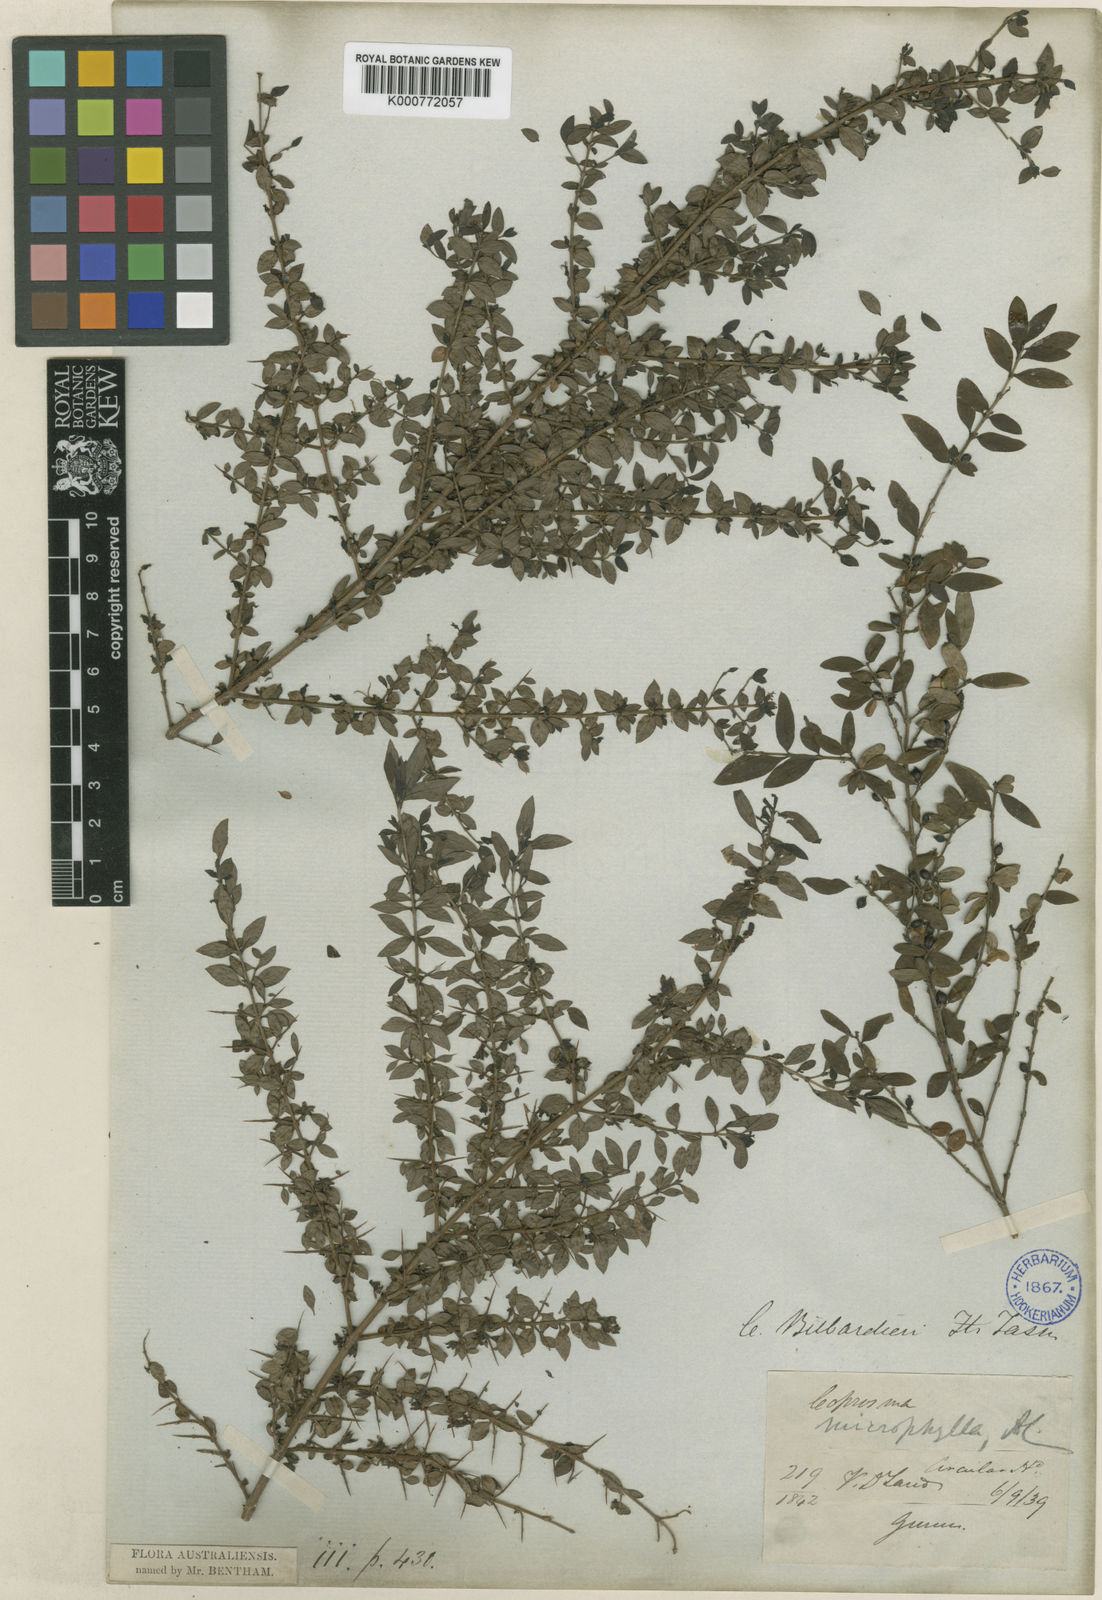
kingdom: Plantae
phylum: Tracheophyta
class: Magnoliopsida
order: Gentianales
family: Rubiaceae
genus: Coprosma
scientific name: Coprosma quadrifida
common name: Prickly currantbush
